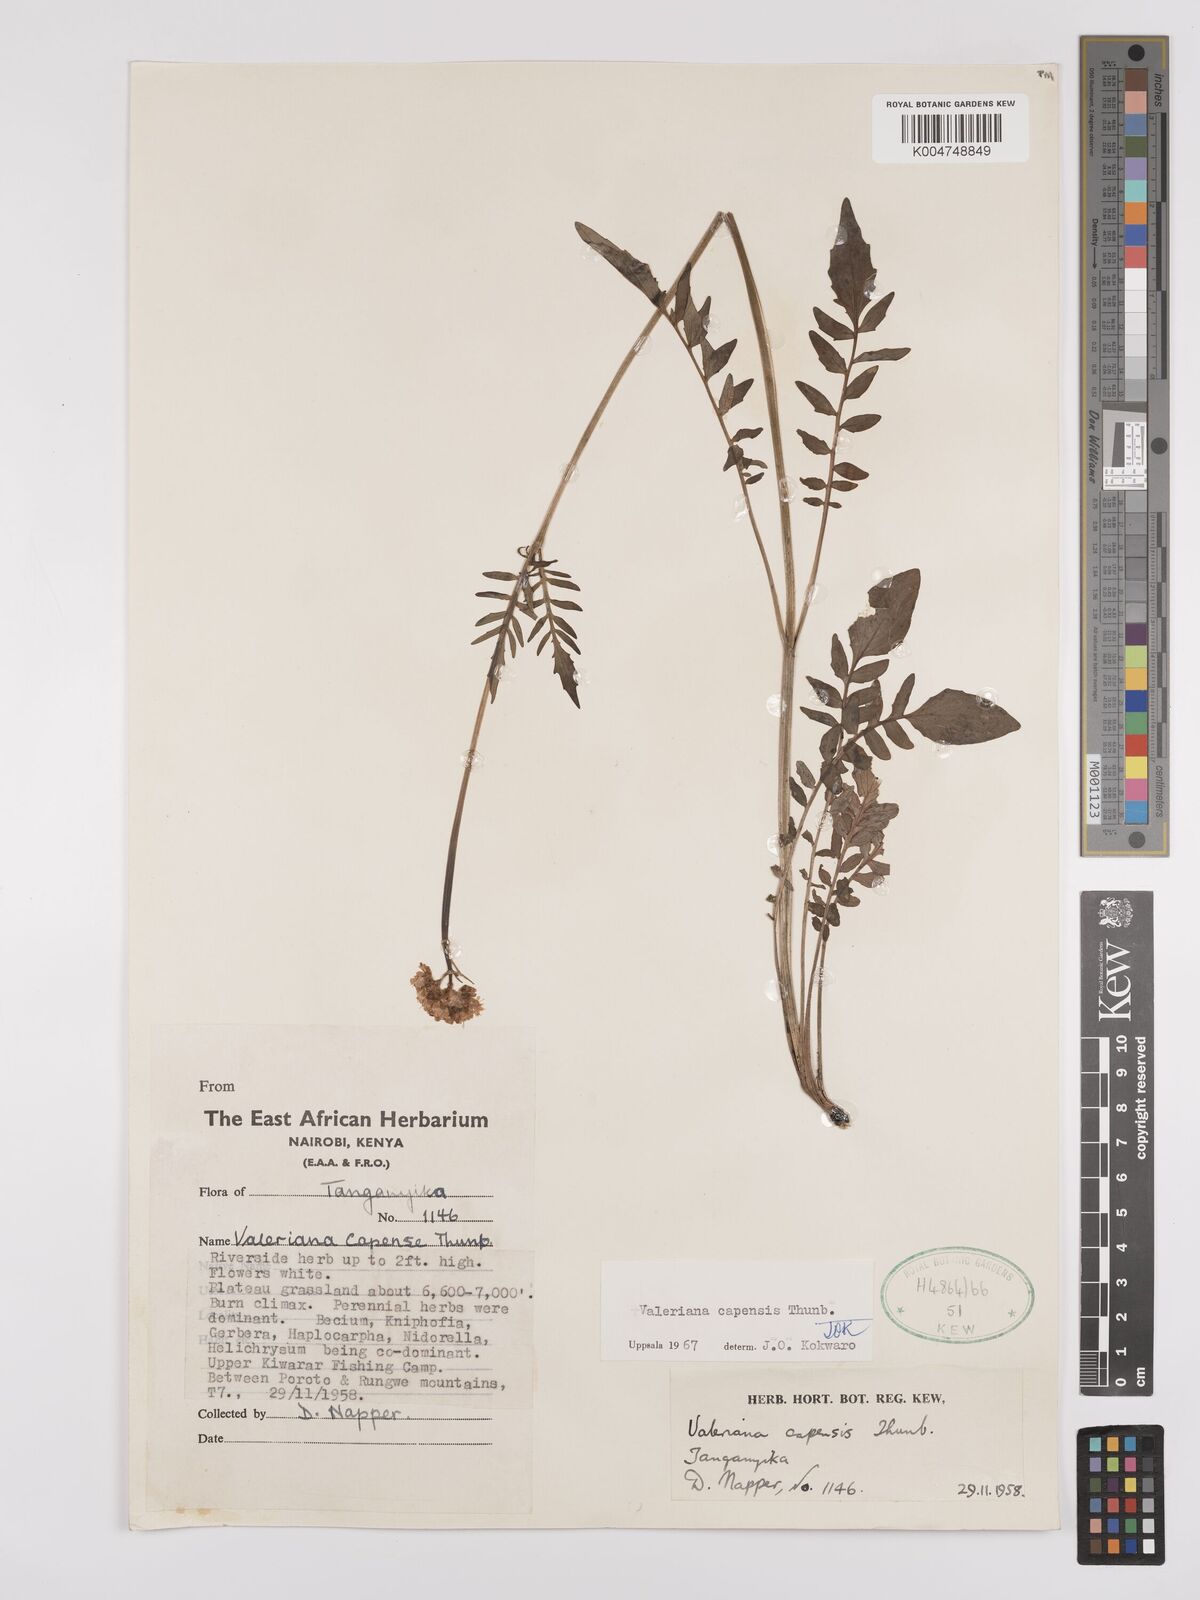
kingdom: Plantae
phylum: Tracheophyta
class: Magnoliopsida
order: Dipsacales
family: Caprifoliaceae
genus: Valeriana
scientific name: Valeriana capensis
